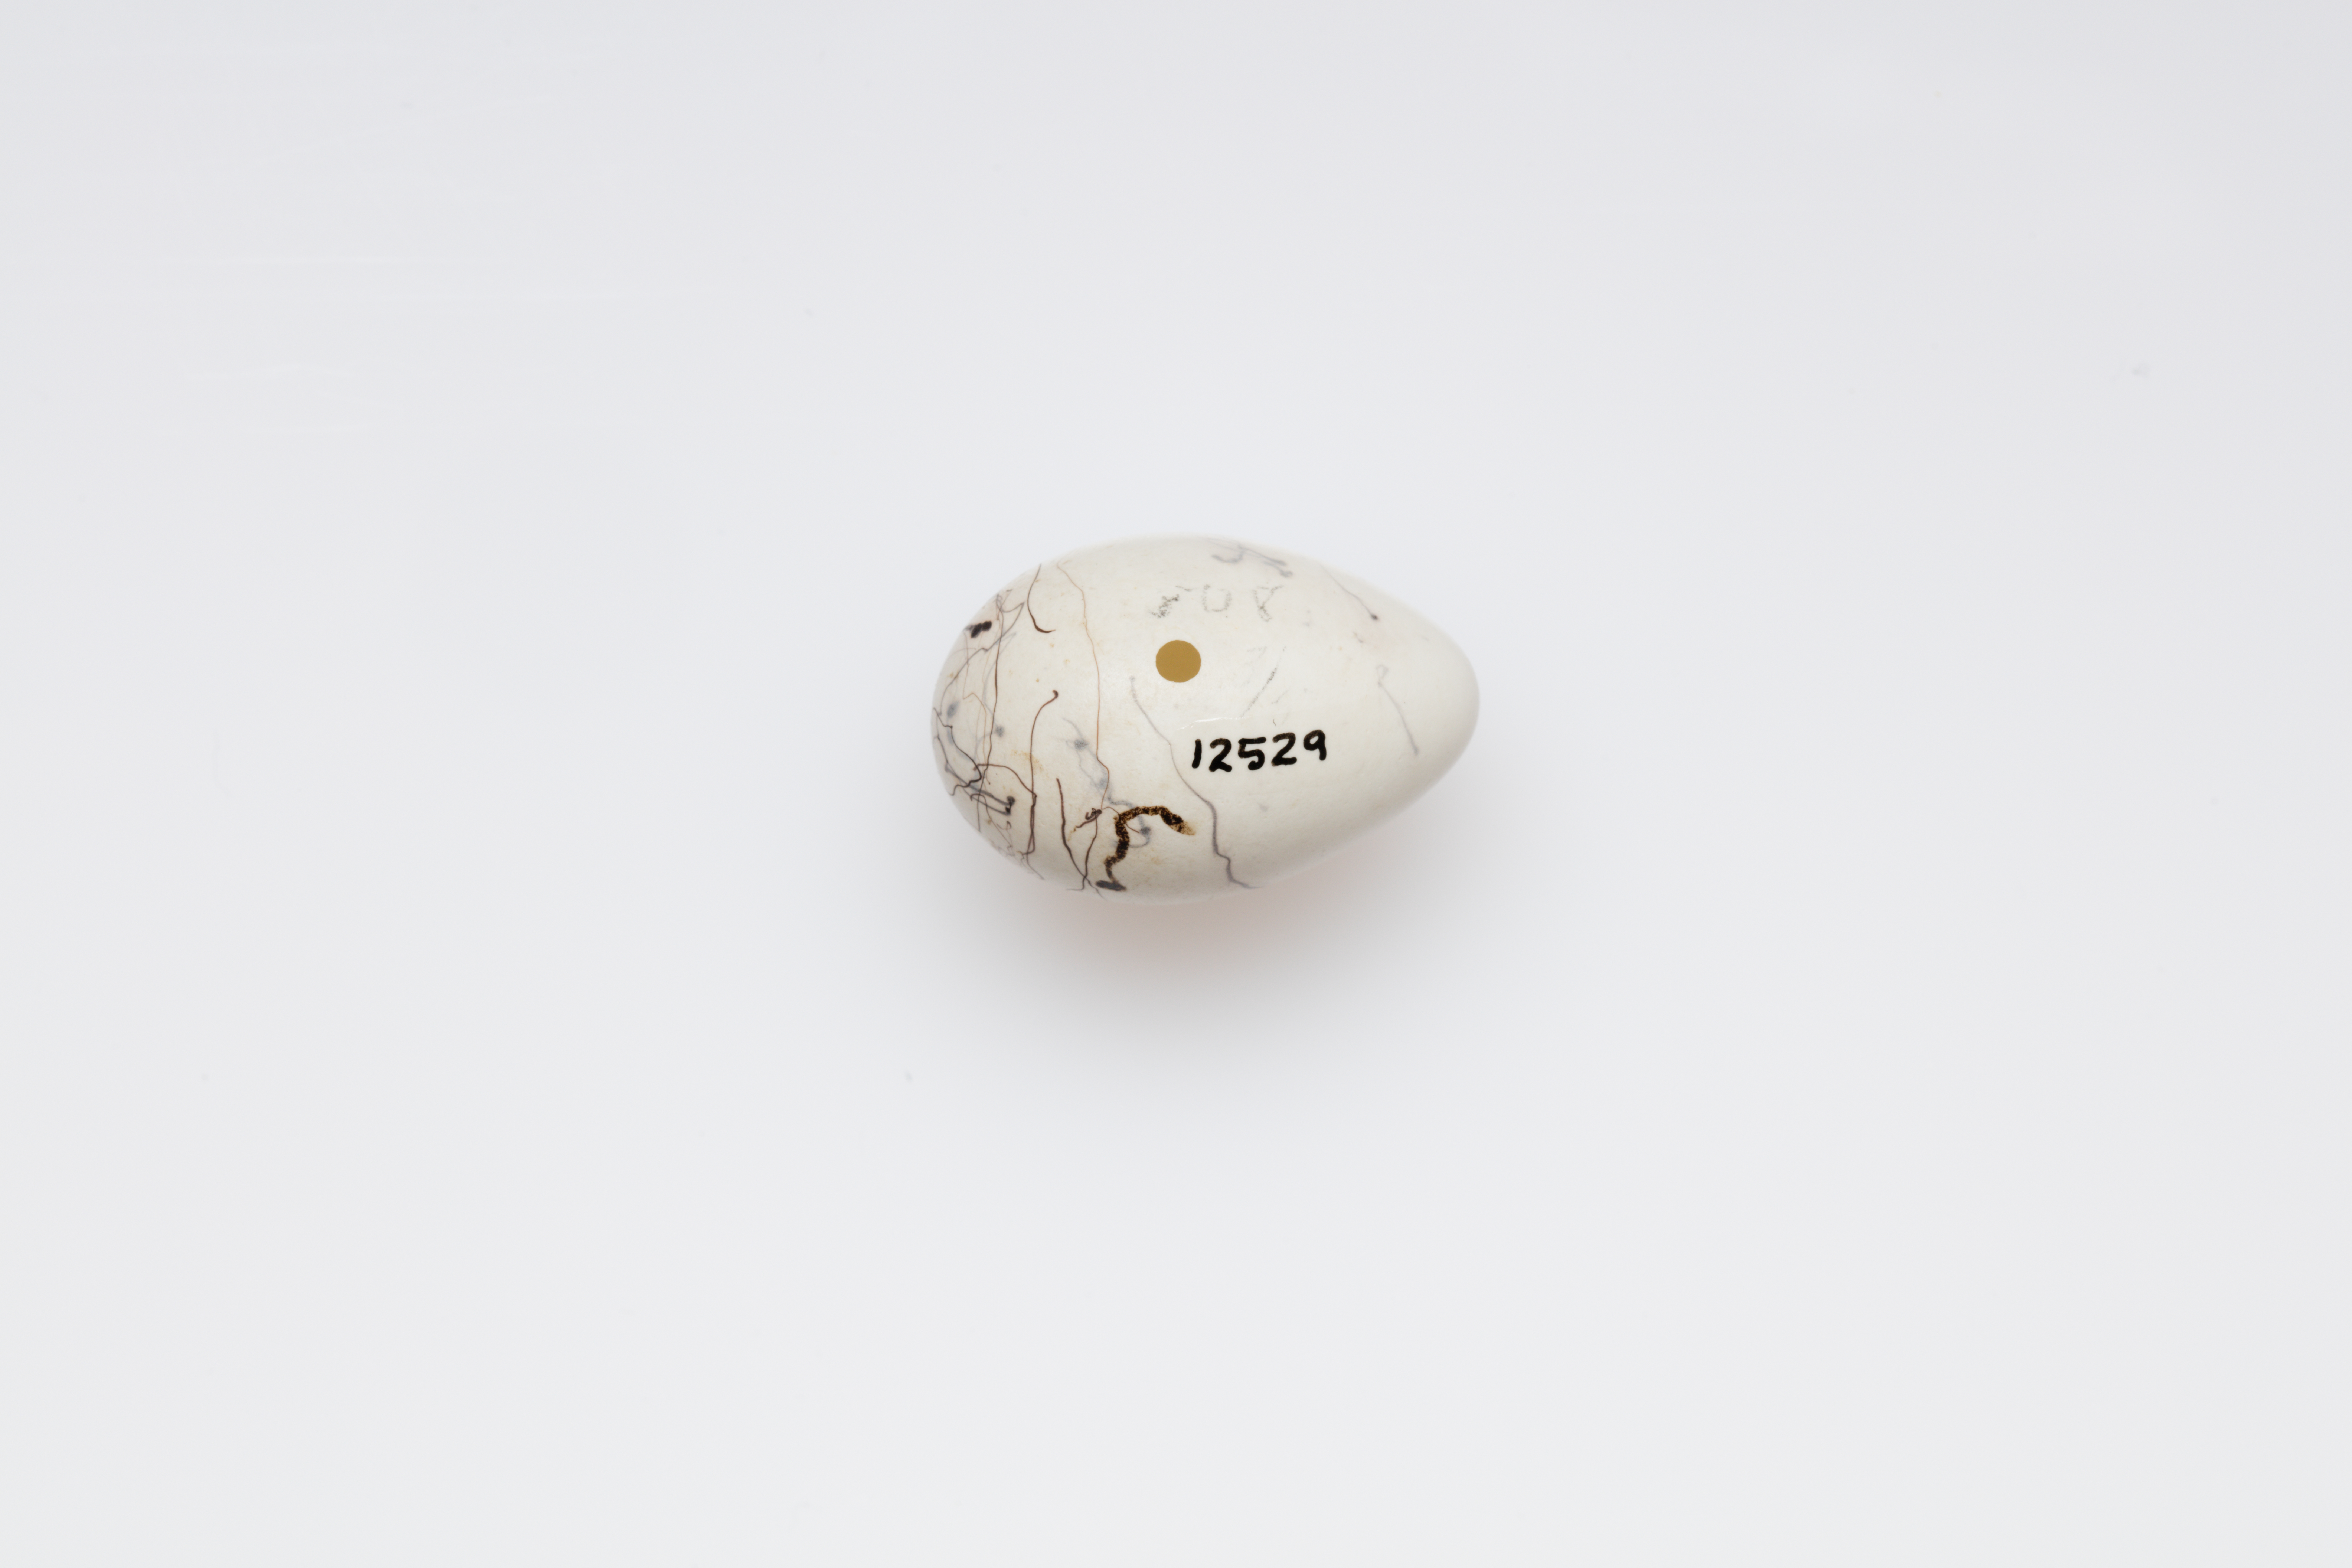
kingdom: Animalia
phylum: Chordata
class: Aves
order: Passeriformes
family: Icteridae
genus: Icterus
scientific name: Icterus galbula
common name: Baltimore oriole
